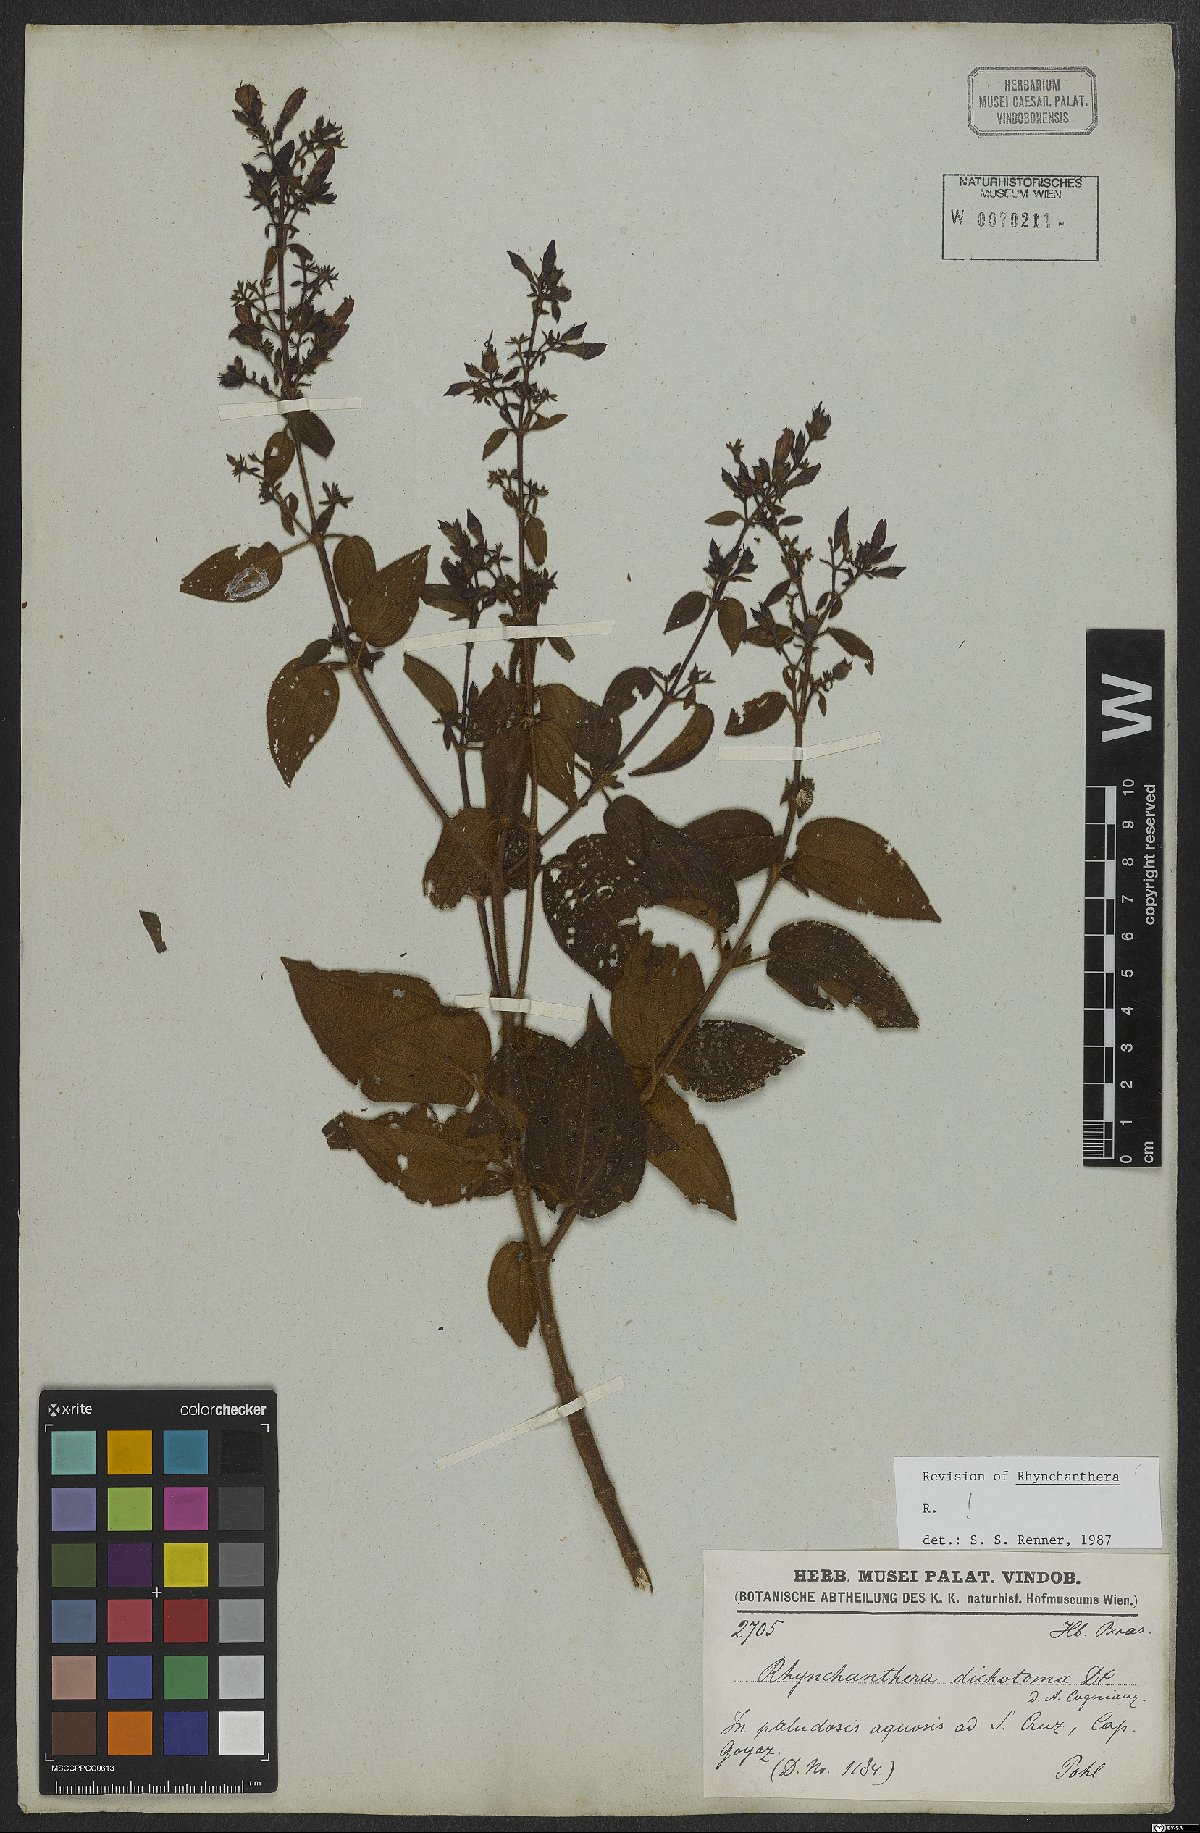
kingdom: Plantae
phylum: Tracheophyta
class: Magnoliopsida
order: Myrtales
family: Melastomataceae
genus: Rhynchanthera
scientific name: Rhynchanthera dichotoma
